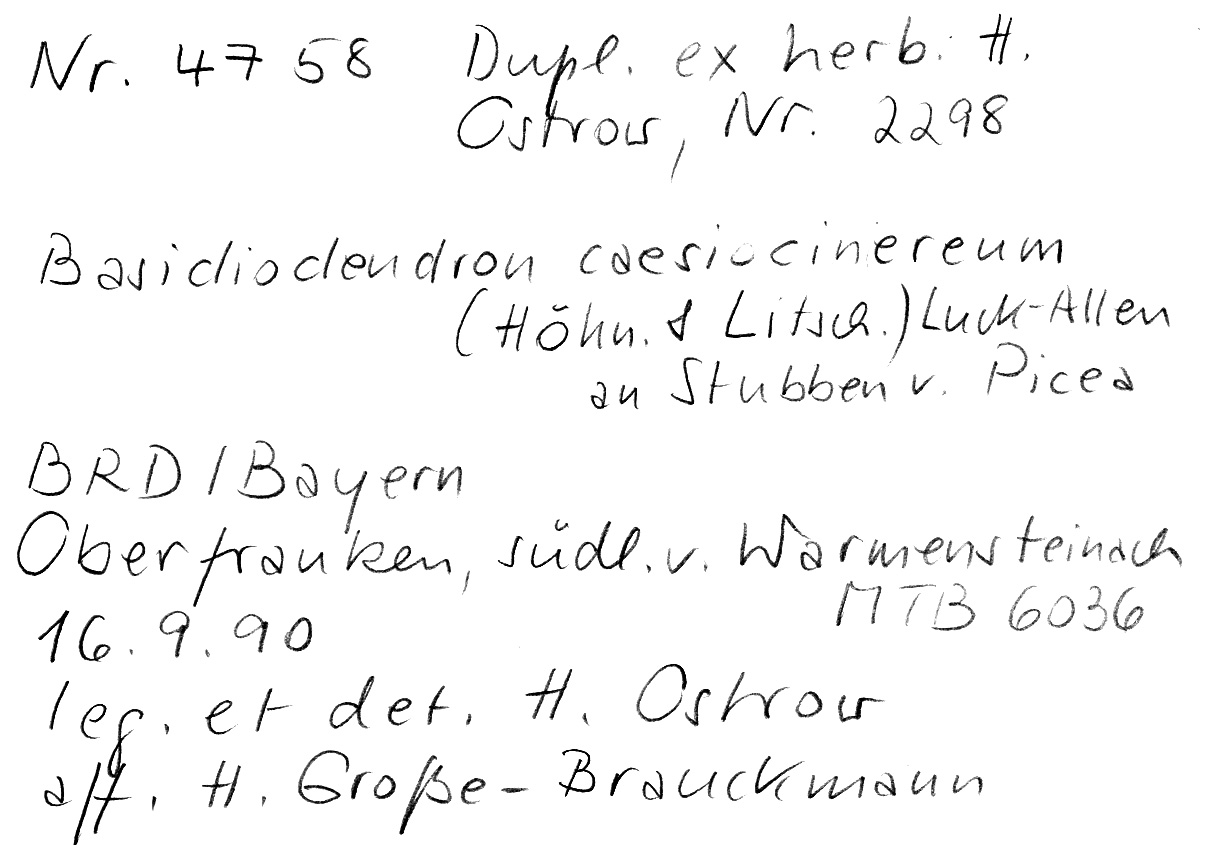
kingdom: Plantae
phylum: Tracheophyta
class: Pinopsida
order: Pinales
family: Pinaceae
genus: Picea
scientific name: Picea
